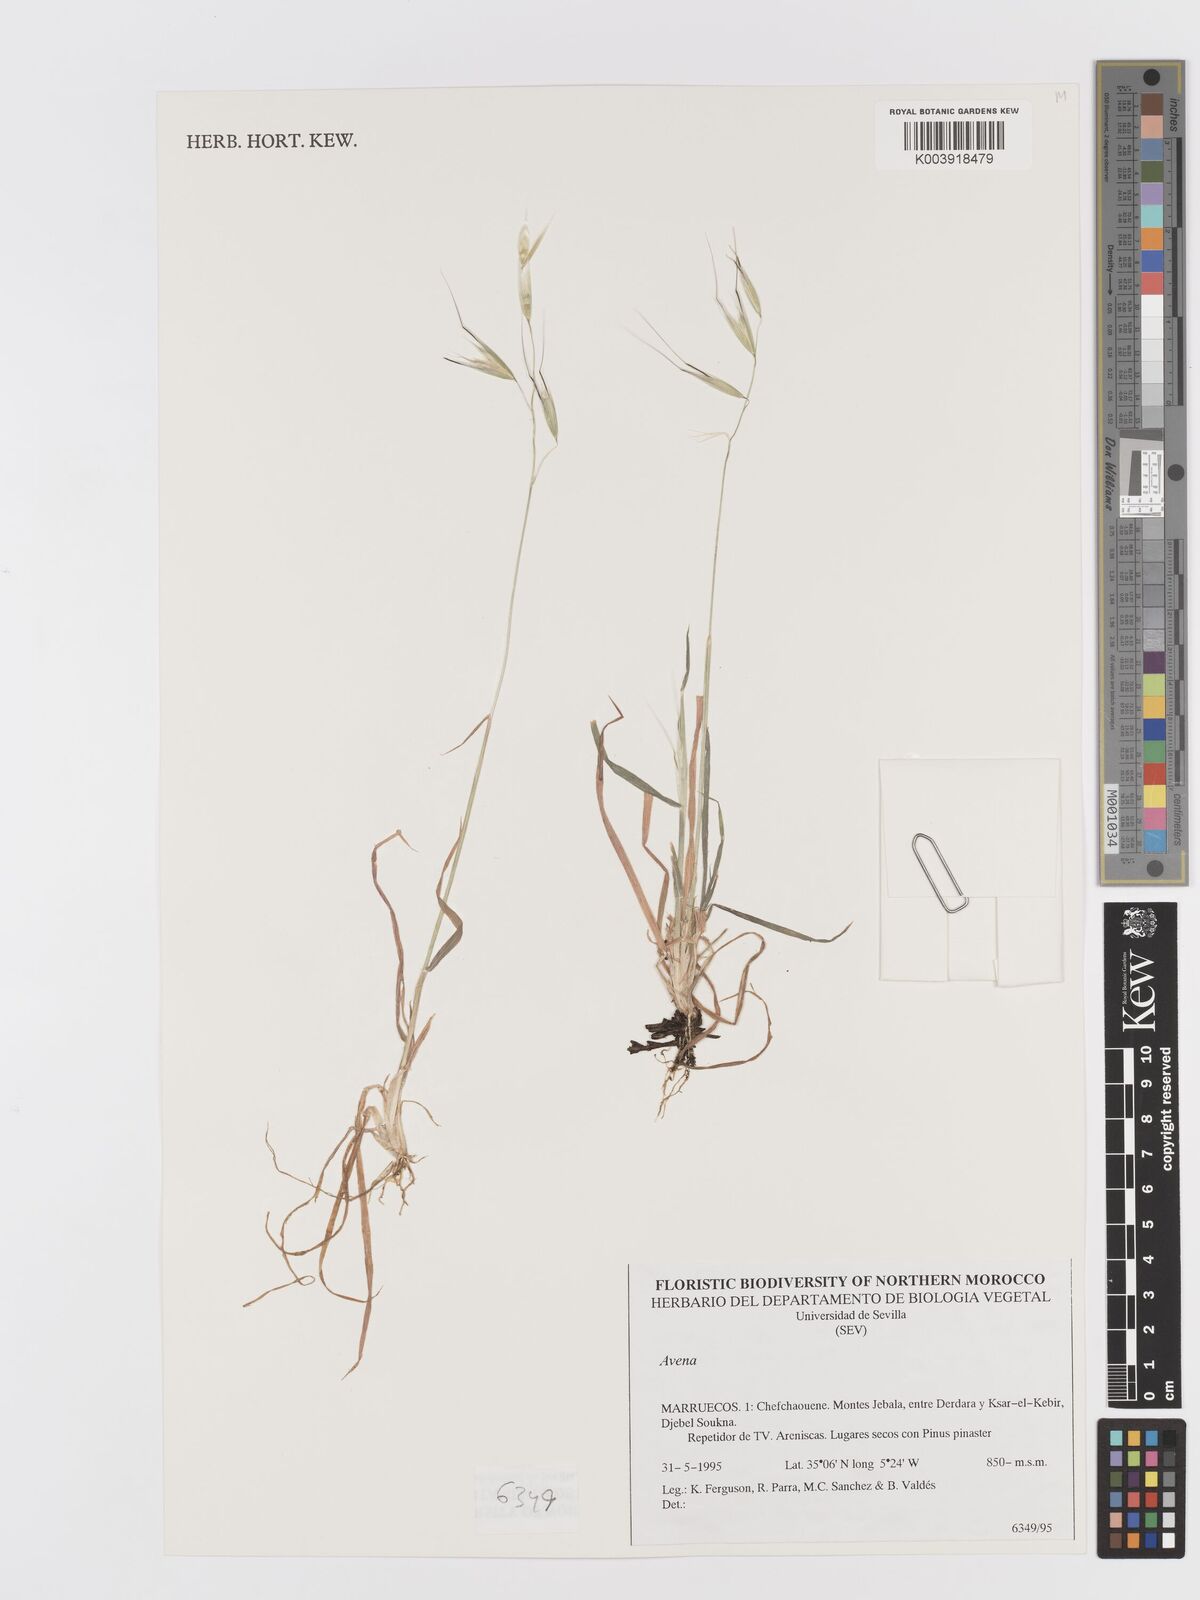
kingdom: Plantae
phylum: Tracheophyta
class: Liliopsida
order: Poales
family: Poaceae
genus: Avena
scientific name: Avena sterilis
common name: Animated oat
